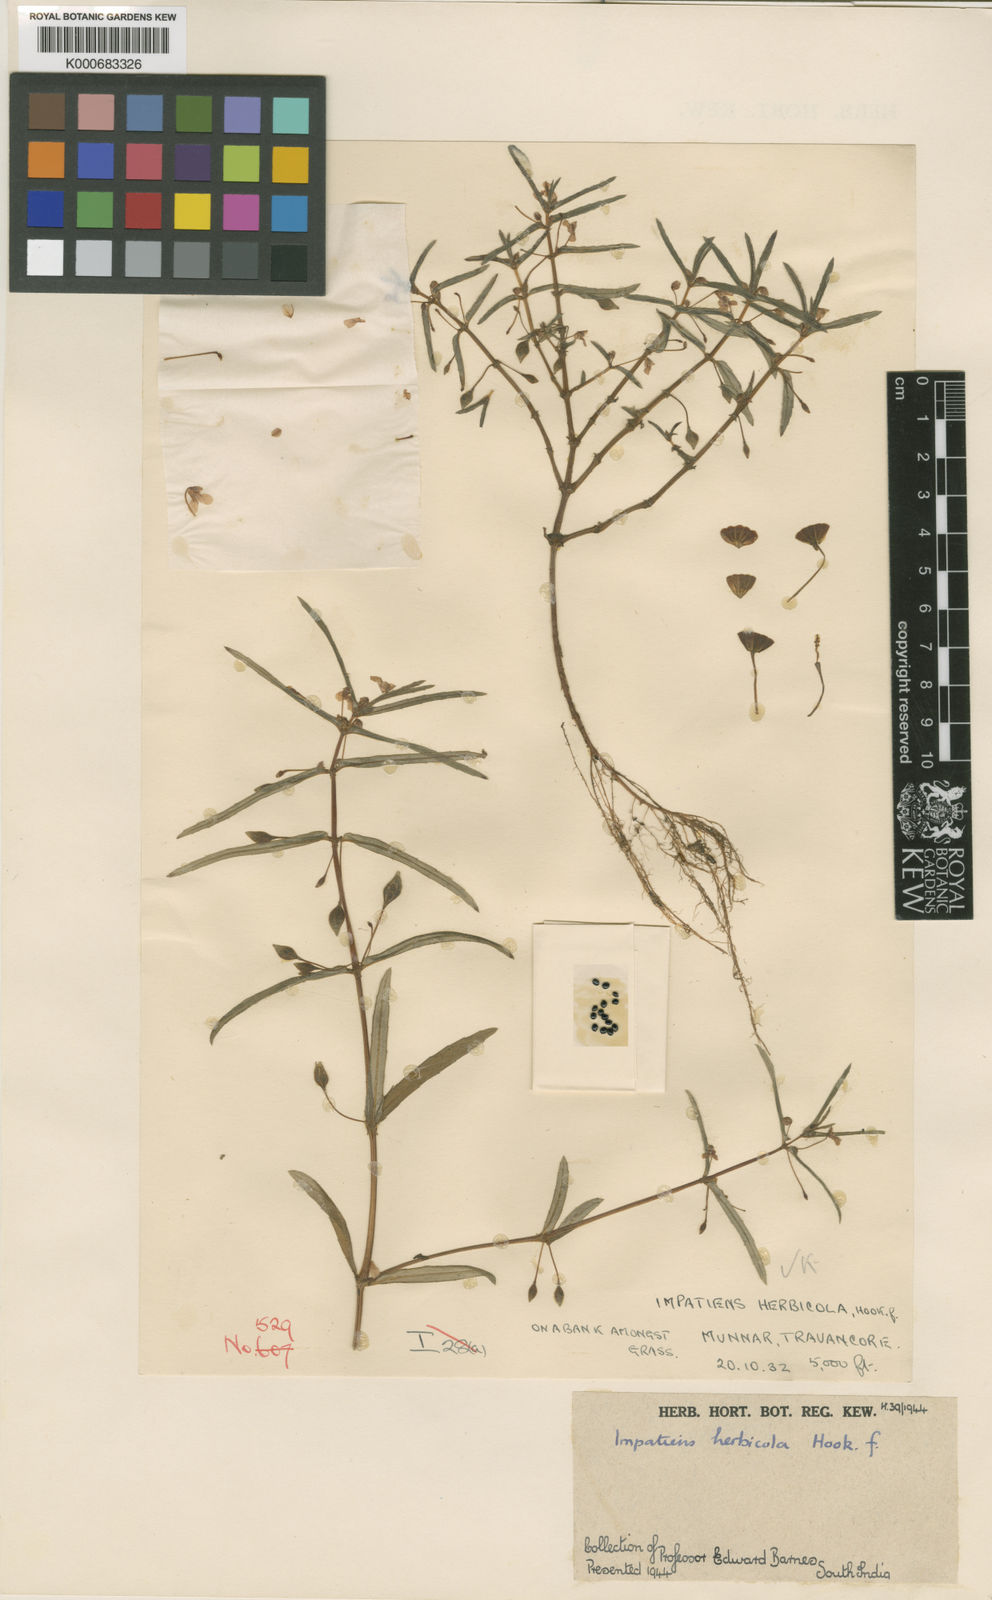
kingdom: Plantae
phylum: Tracheophyta
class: Magnoliopsida
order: Ericales
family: Balsaminaceae
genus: Impatiens
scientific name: Impatiens herbicola
